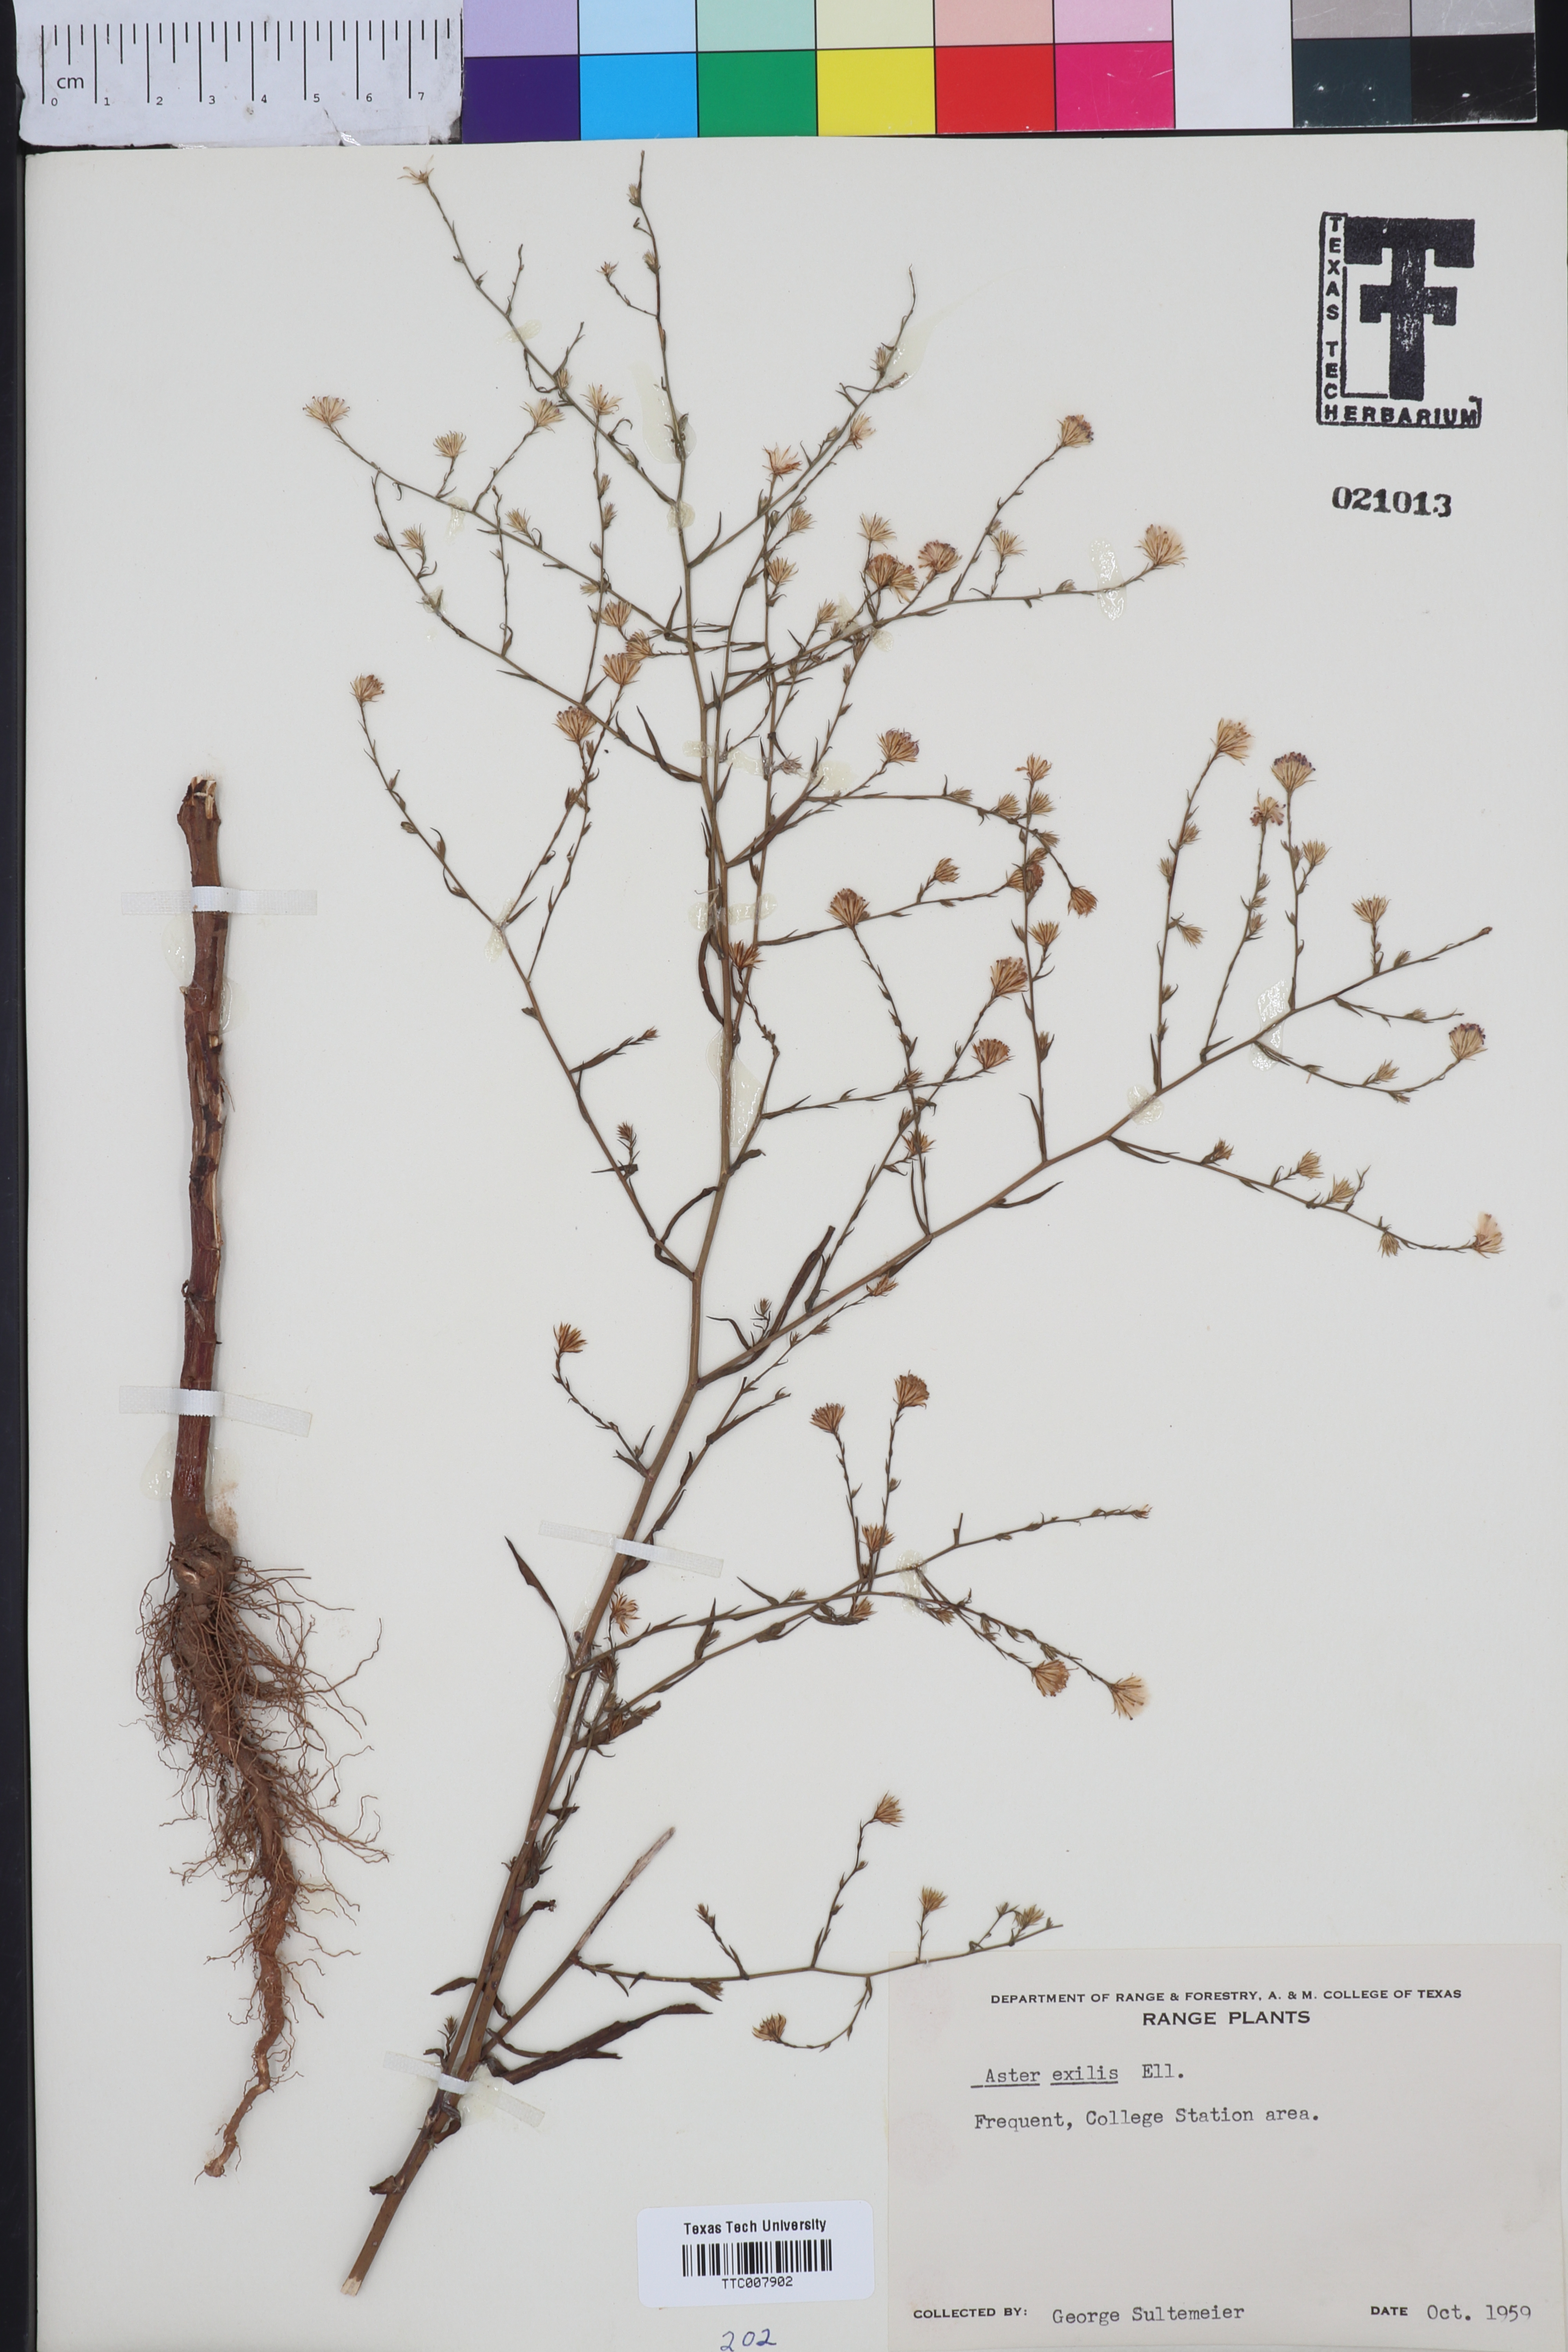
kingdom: Plantae
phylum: Tracheophyta
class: Magnoliopsida
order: Asterales
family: Asteraceae
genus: Symphyotrichum
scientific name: Symphyotrichum expansum
